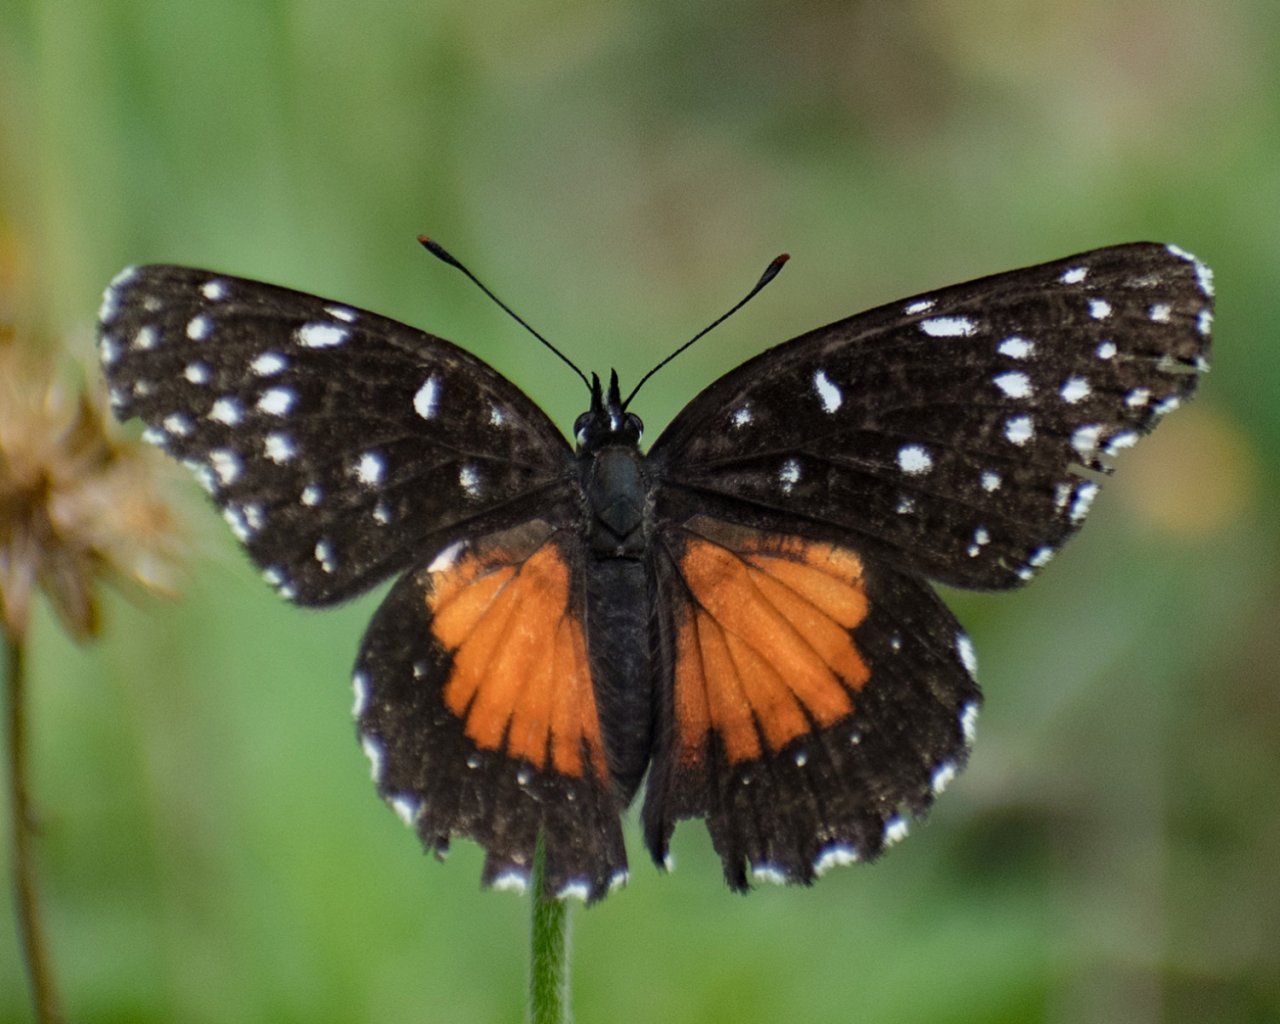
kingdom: Animalia
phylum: Arthropoda
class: Insecta
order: Lepidoptera
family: Nymphalidae
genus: Chlosyne
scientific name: Chlosyne lacinia
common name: Bordered Patch
